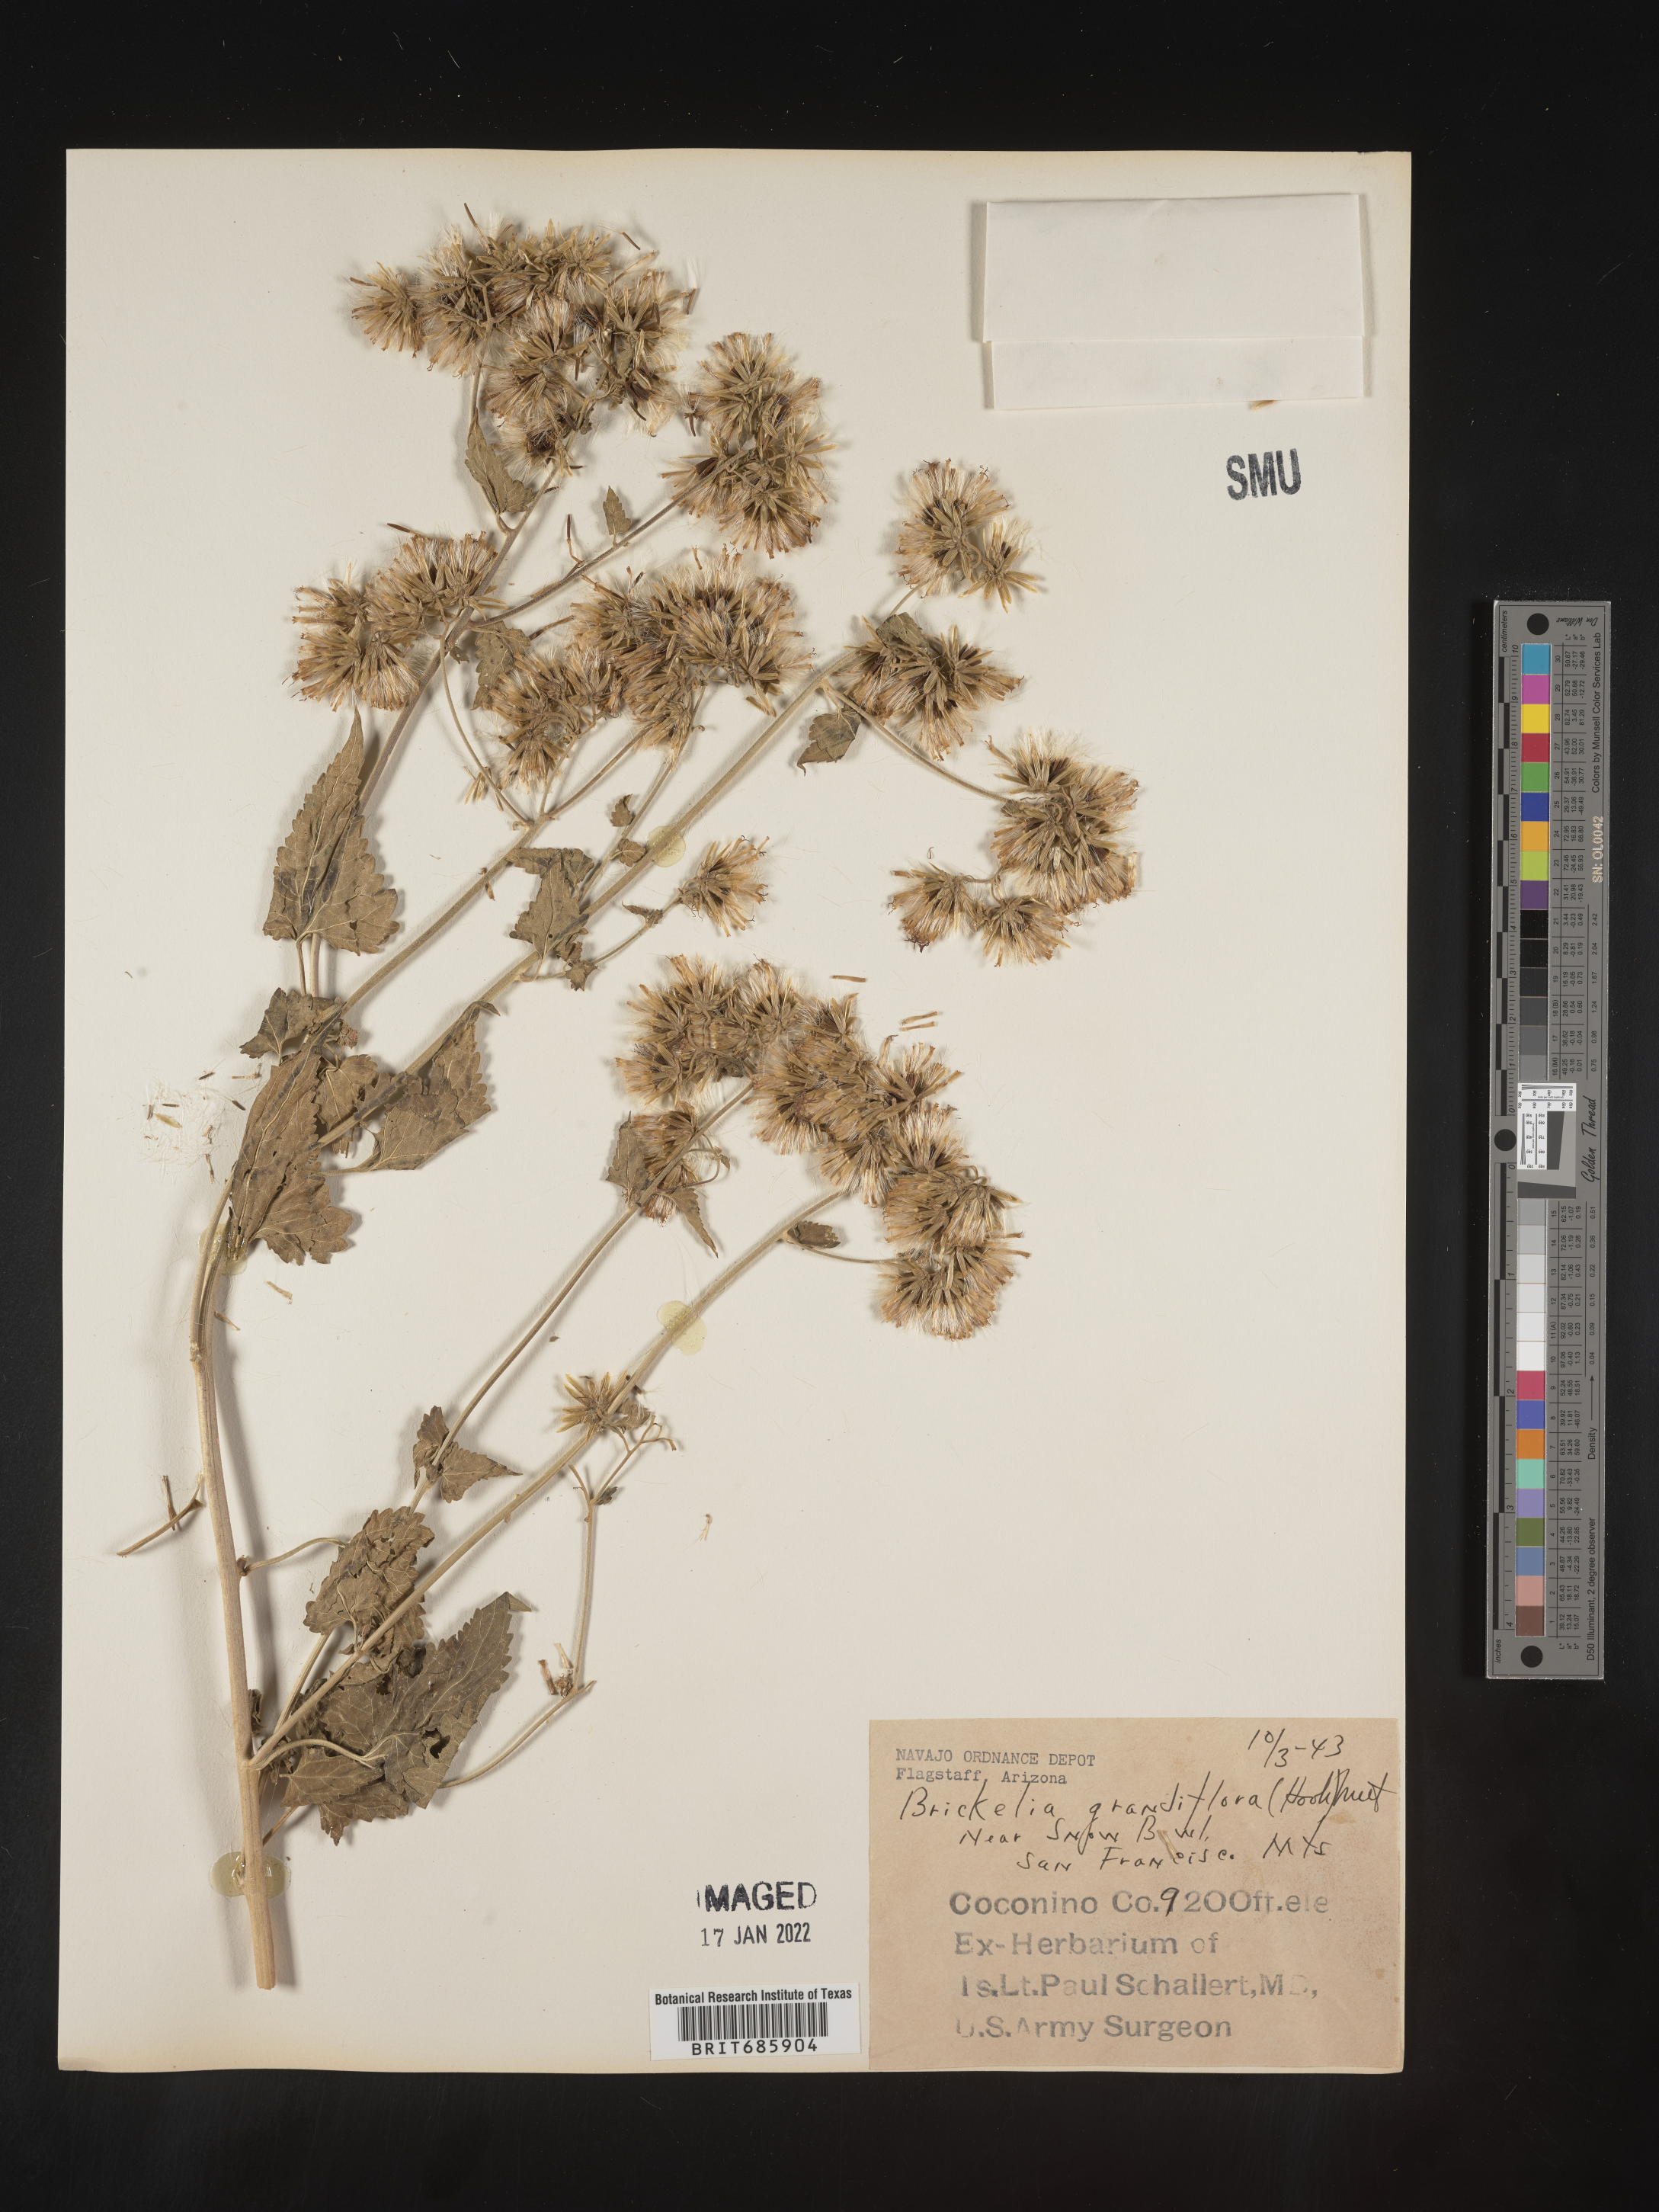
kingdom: Plantae
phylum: Tracheophyta
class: Magnoliopsida
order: Asterales
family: Asteraceae
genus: Brickellia
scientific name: Brickellia grandiflora
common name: Large-flowered brickellia
